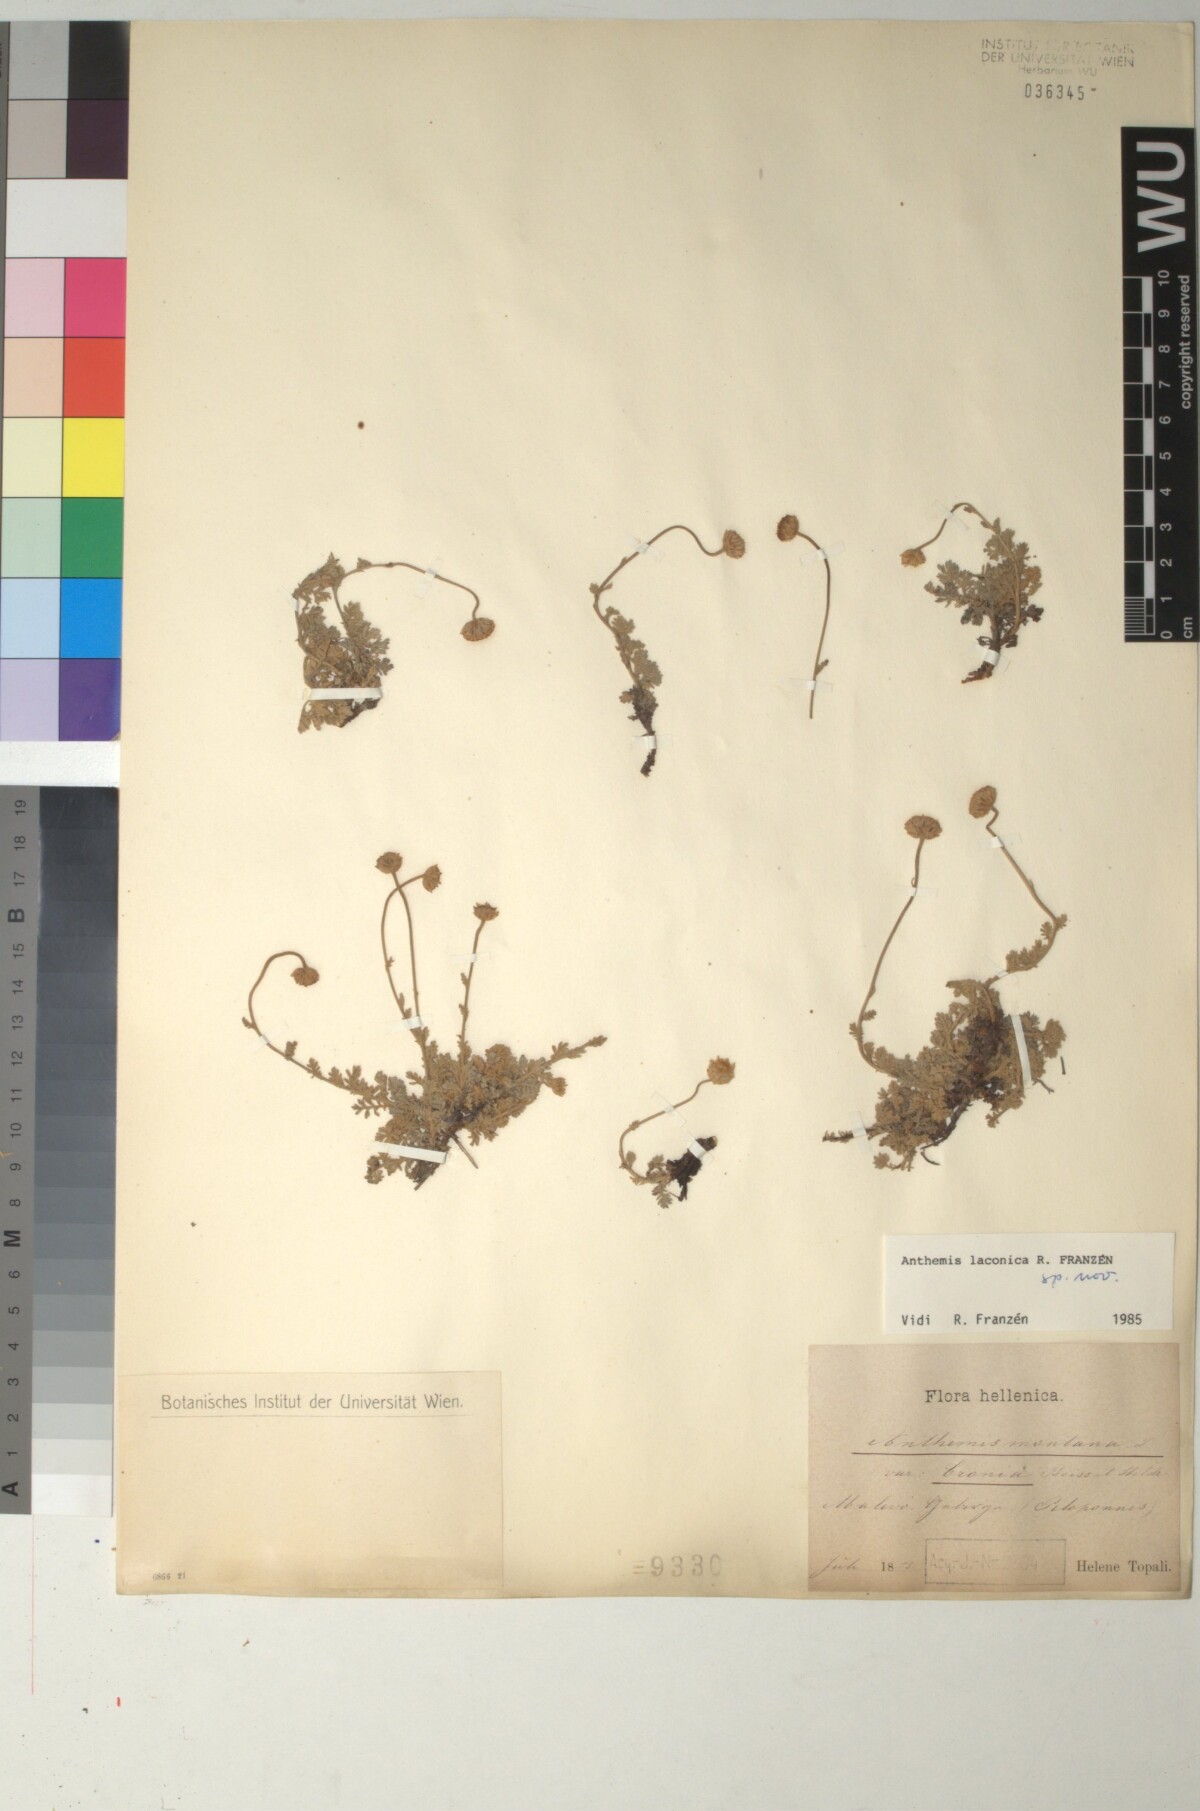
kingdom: Plantae
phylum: Tracheophyta
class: Magnoliopsida
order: Asterales
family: Asteraceae
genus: Anthemis
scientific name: Anthemis laconica
